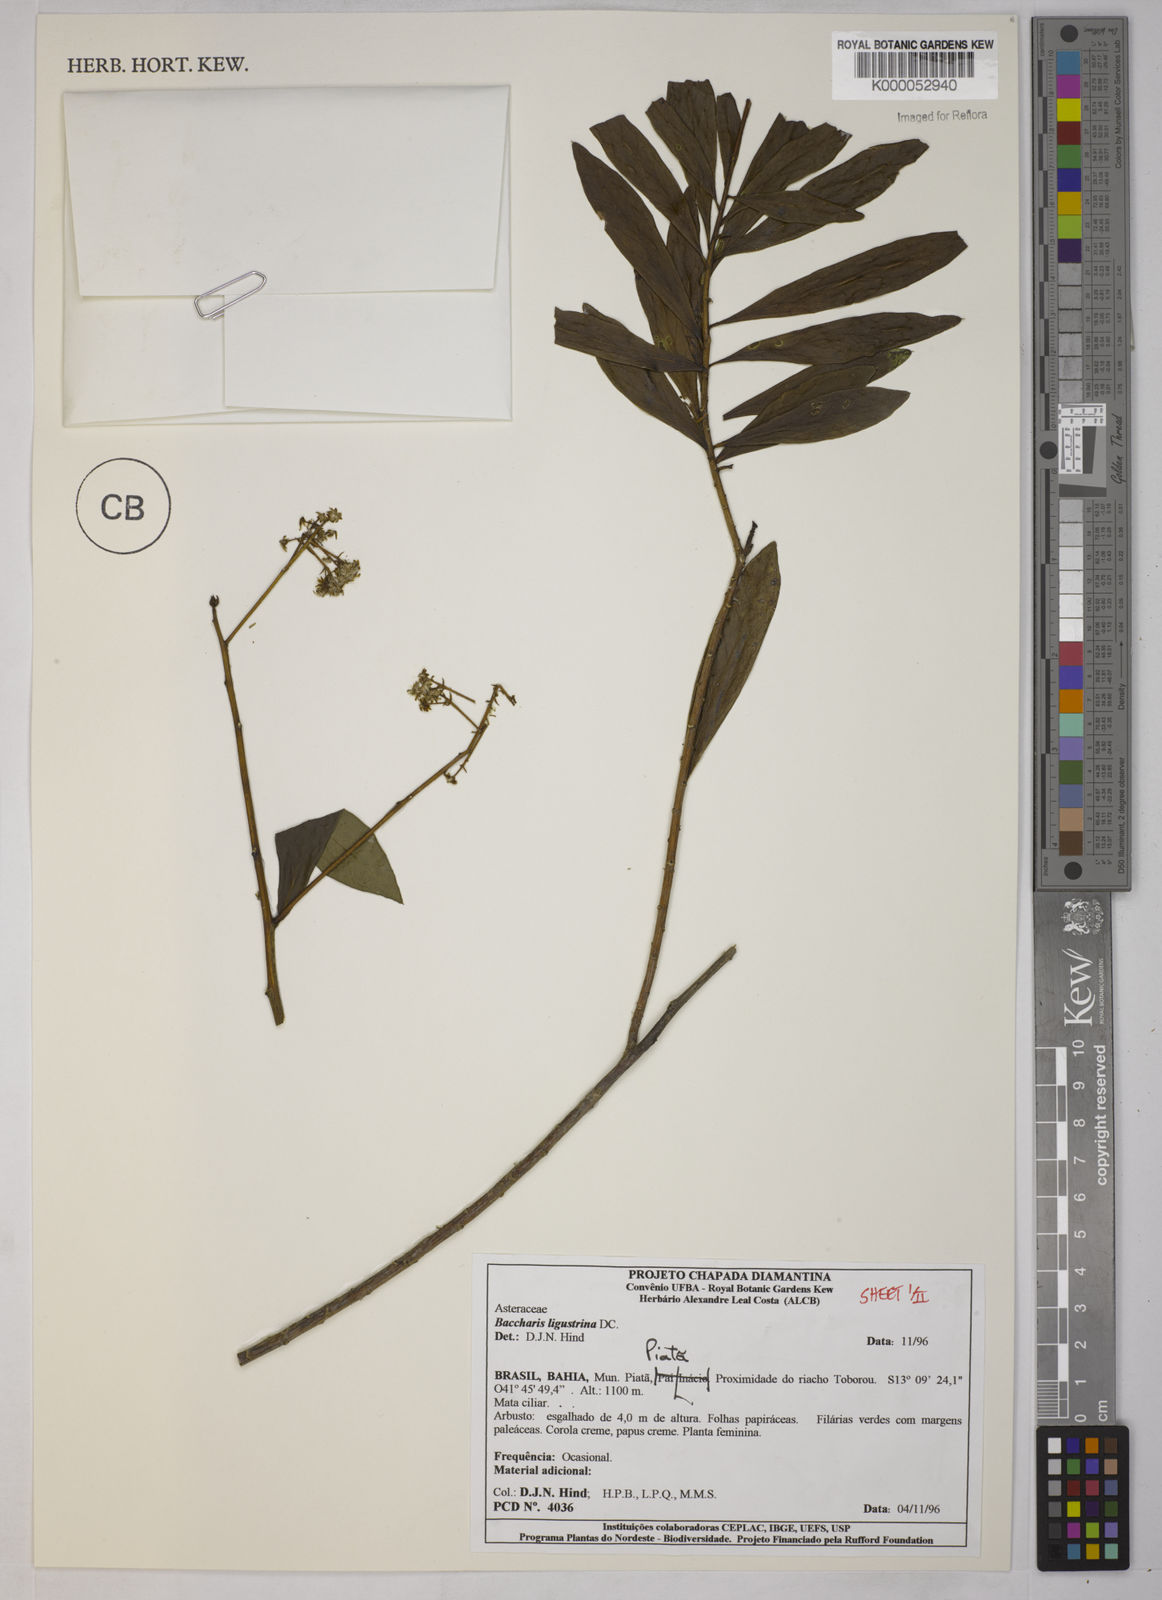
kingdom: Plantae
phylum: Tracheophyta
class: Magnoliopsida
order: Asterales
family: Asteraceae
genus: Baccharis
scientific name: Baccharis ligustrina
